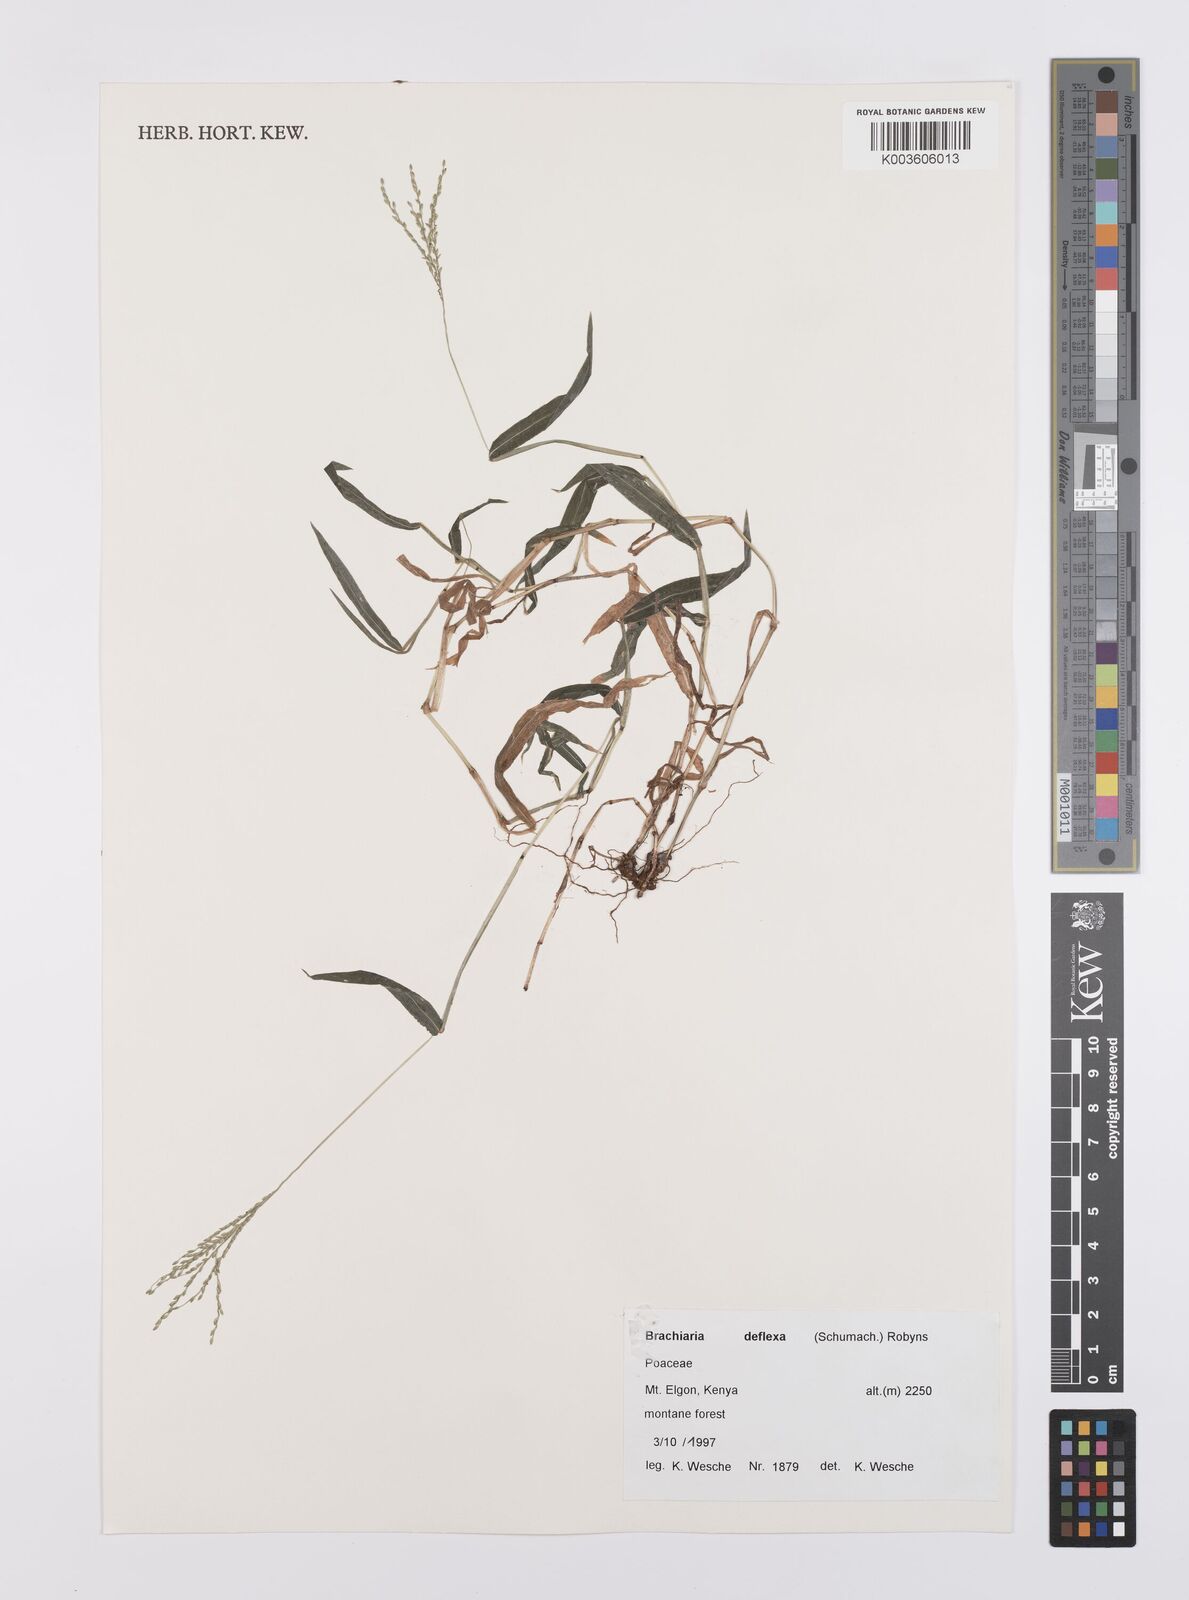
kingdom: Plantae
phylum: Tracheophyta
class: Liliopsida
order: Poales
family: Poaceae
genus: Urochloa
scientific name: Urochloa deflexa
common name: Guinea millet
